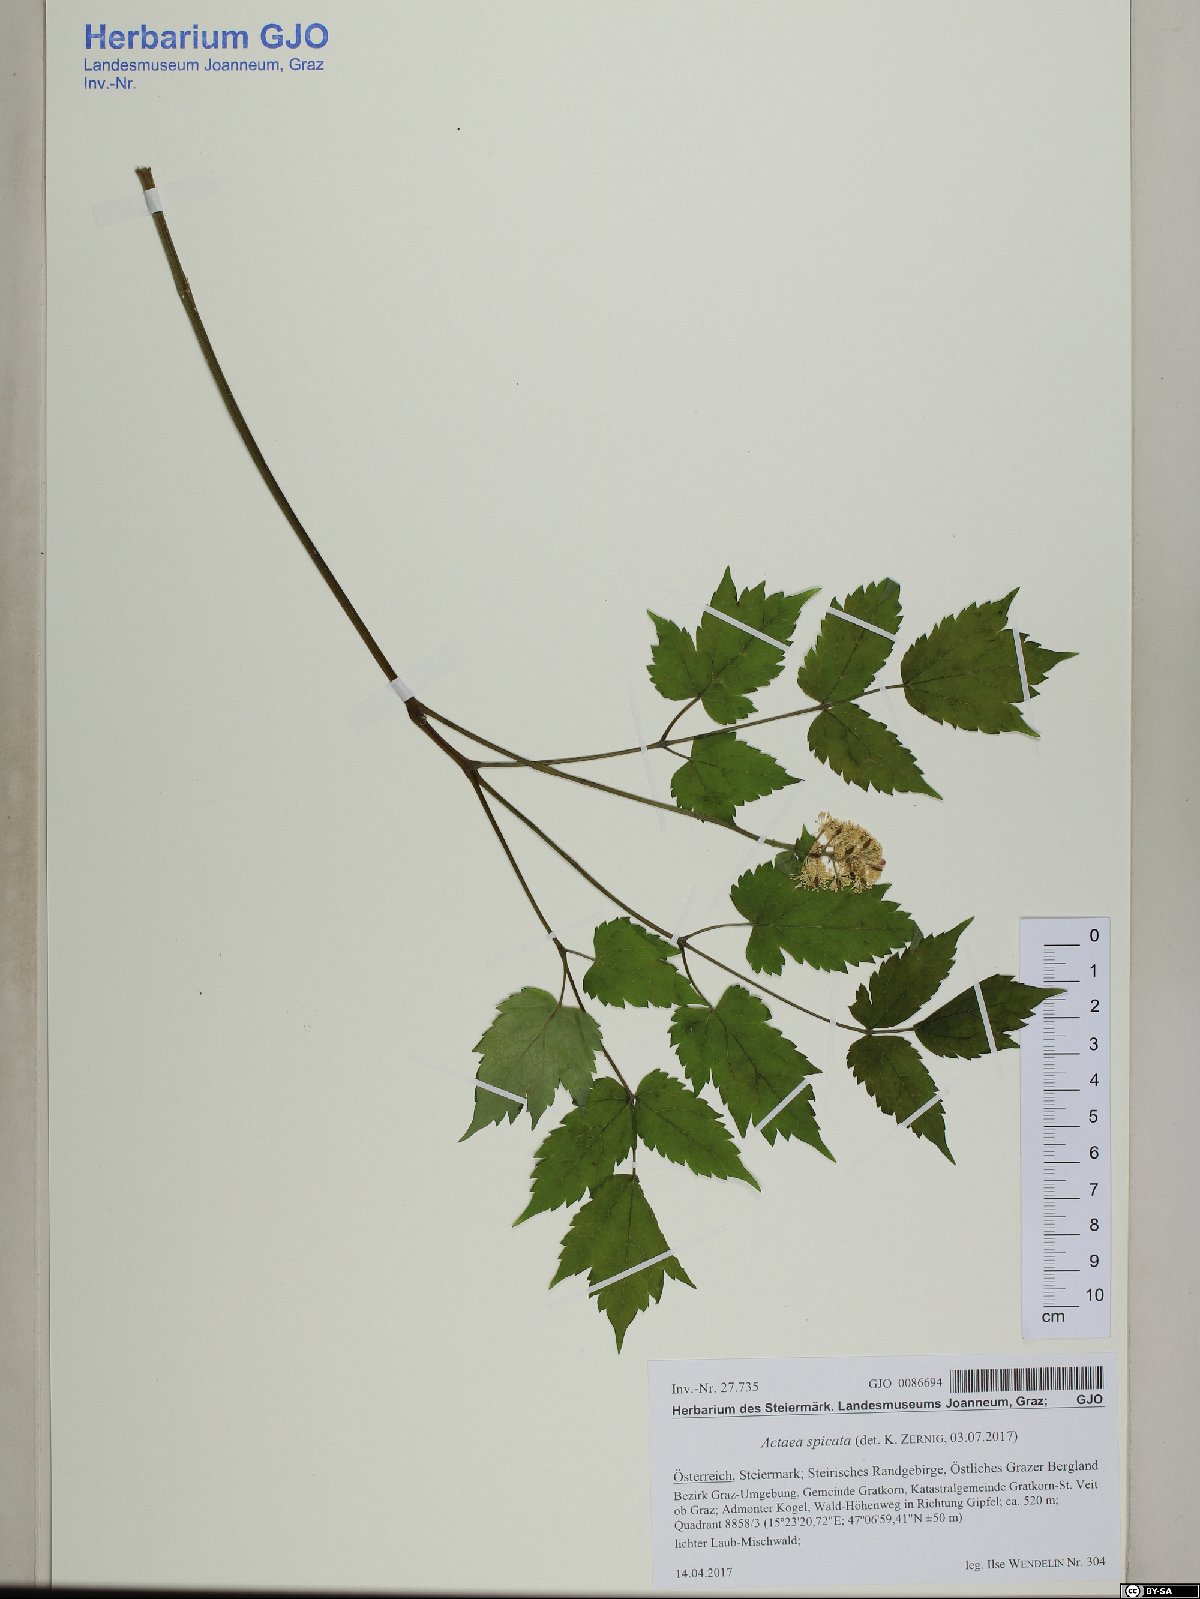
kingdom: Plantae
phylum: Tracheophyta
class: Magnoliopsida
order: Ranunculales
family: Ranunculaceae
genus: Actaea
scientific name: Actaea spicata
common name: Baneberry
